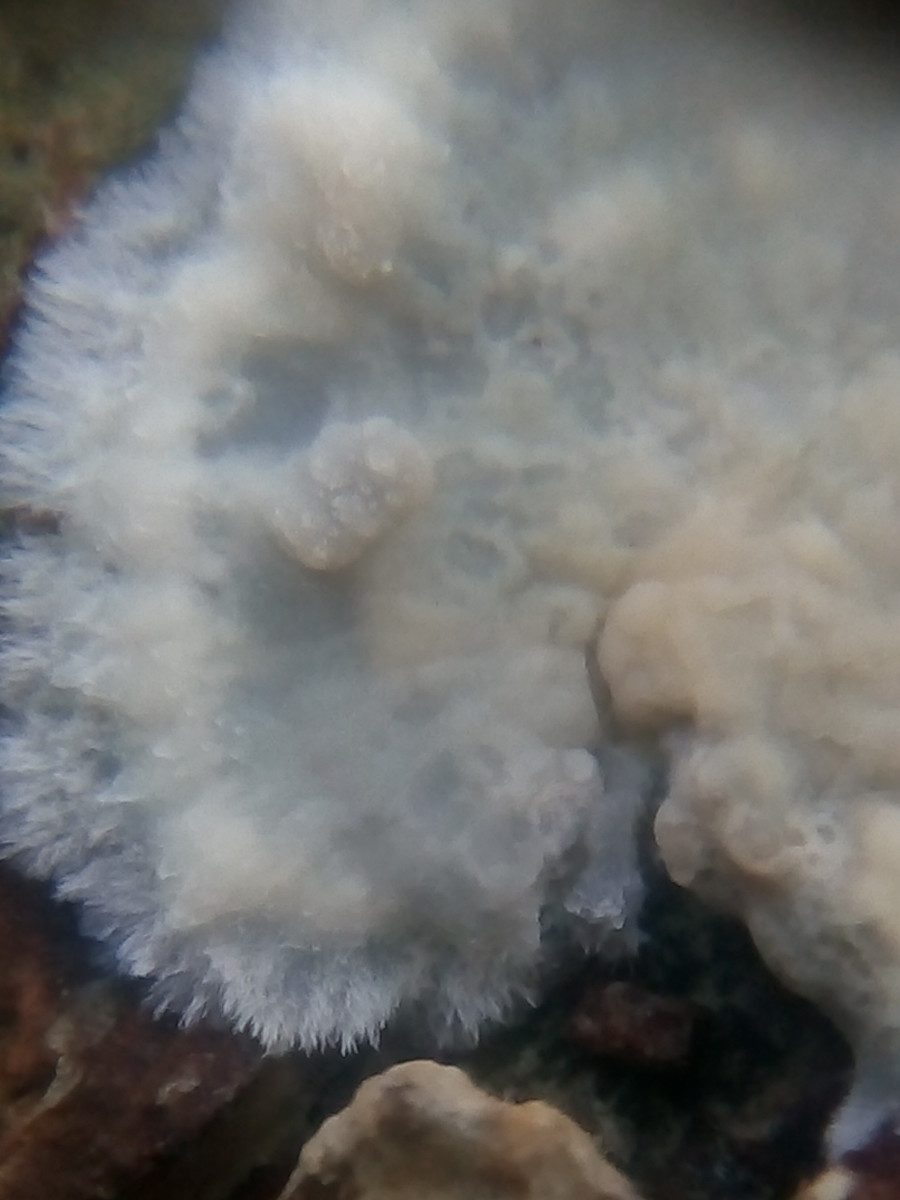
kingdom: Fungi
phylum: Basidiomycota
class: Agaricomycetes
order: Agaricales
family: Radulomycetaceae
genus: Radulomyces
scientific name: Radulomyces confluens
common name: glat naftalinskind
